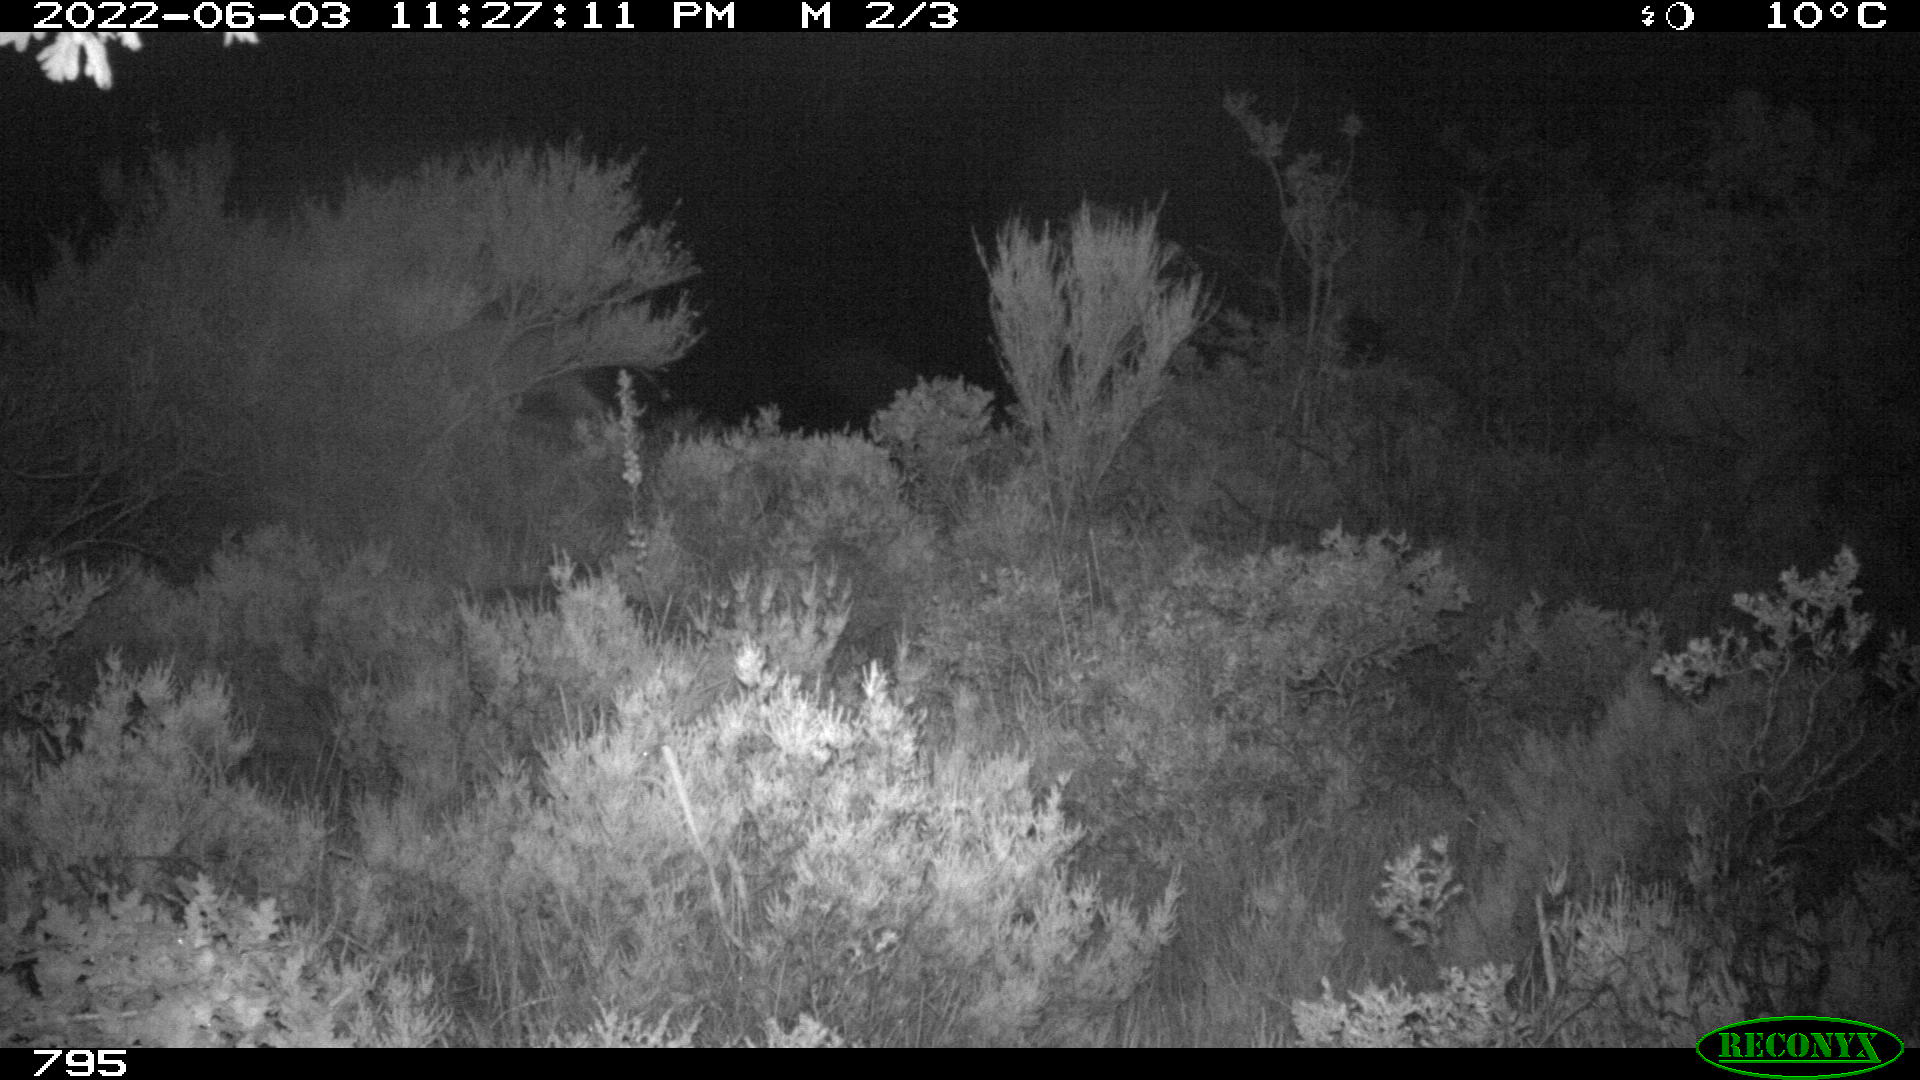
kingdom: Animalia
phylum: Chordata
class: Mammalia
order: Artiodactyla
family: Bovidae
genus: Capra
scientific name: Capra pyrenaica
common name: Spanish ibex
